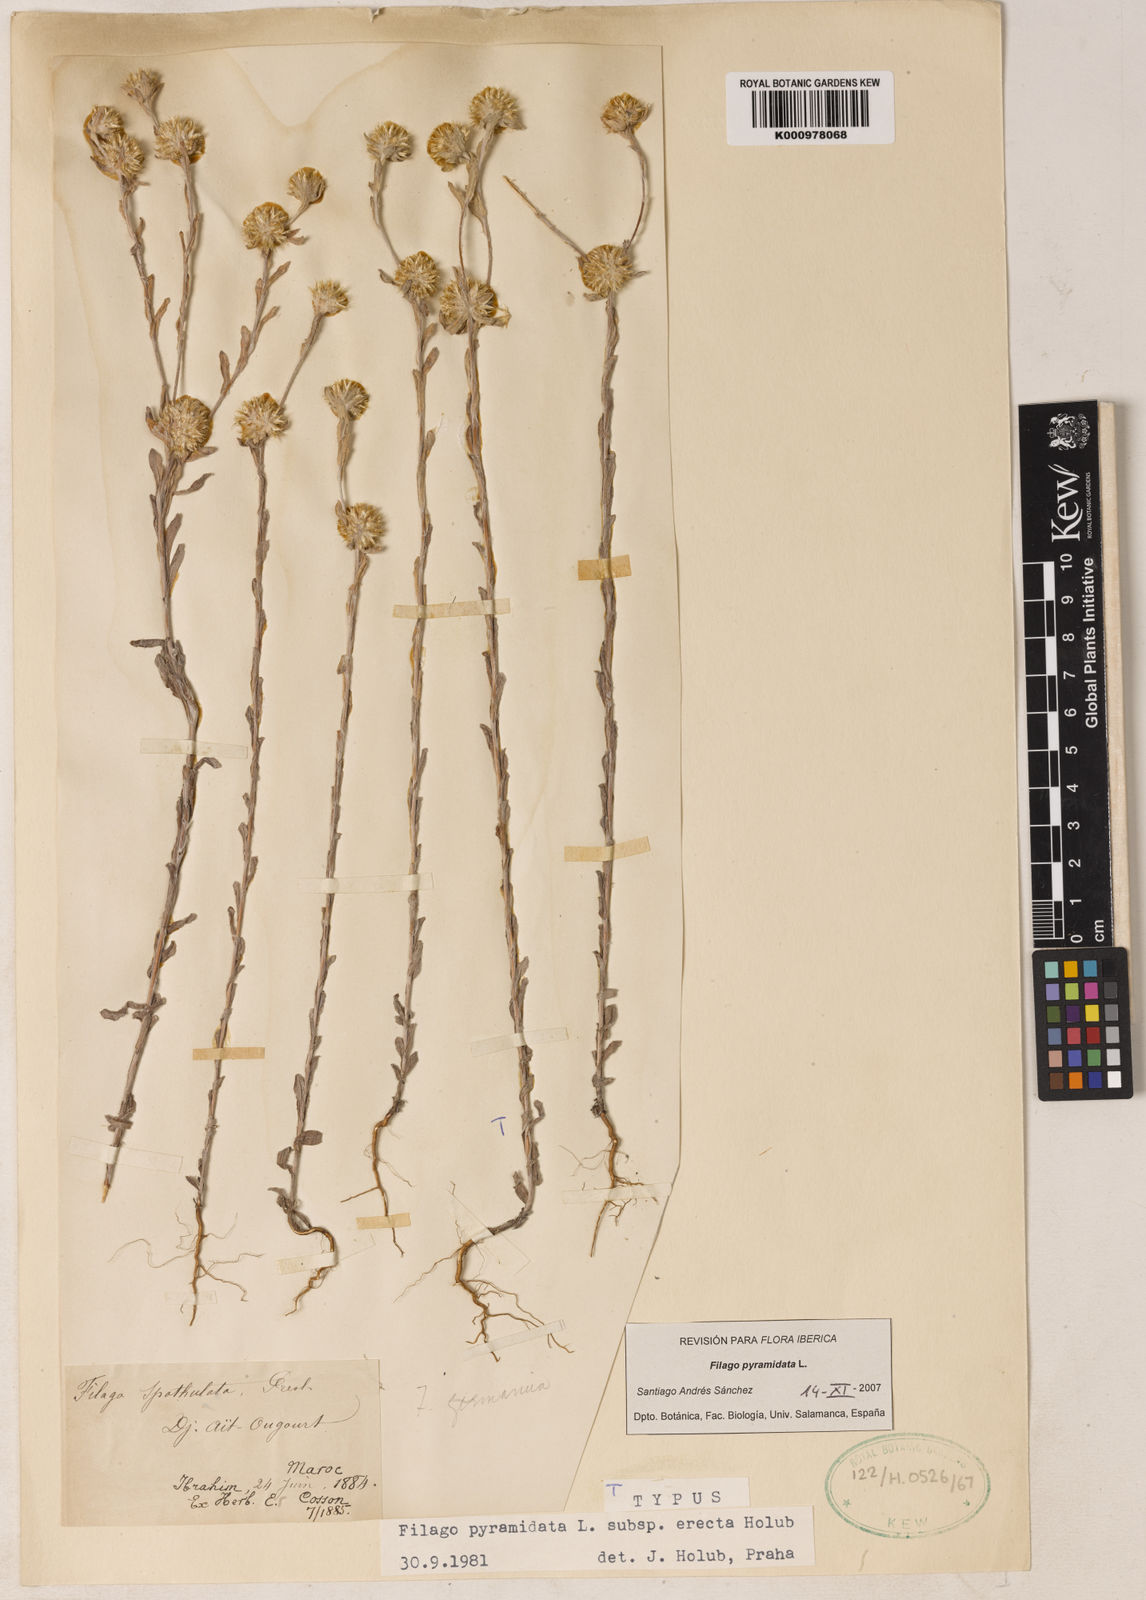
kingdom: Plantae
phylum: Tracheophyta
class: Magnoliopsida
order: Asterales
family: Asteraceae
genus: Filago
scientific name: Filago pyramidata
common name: Broad-leaved cudweed
